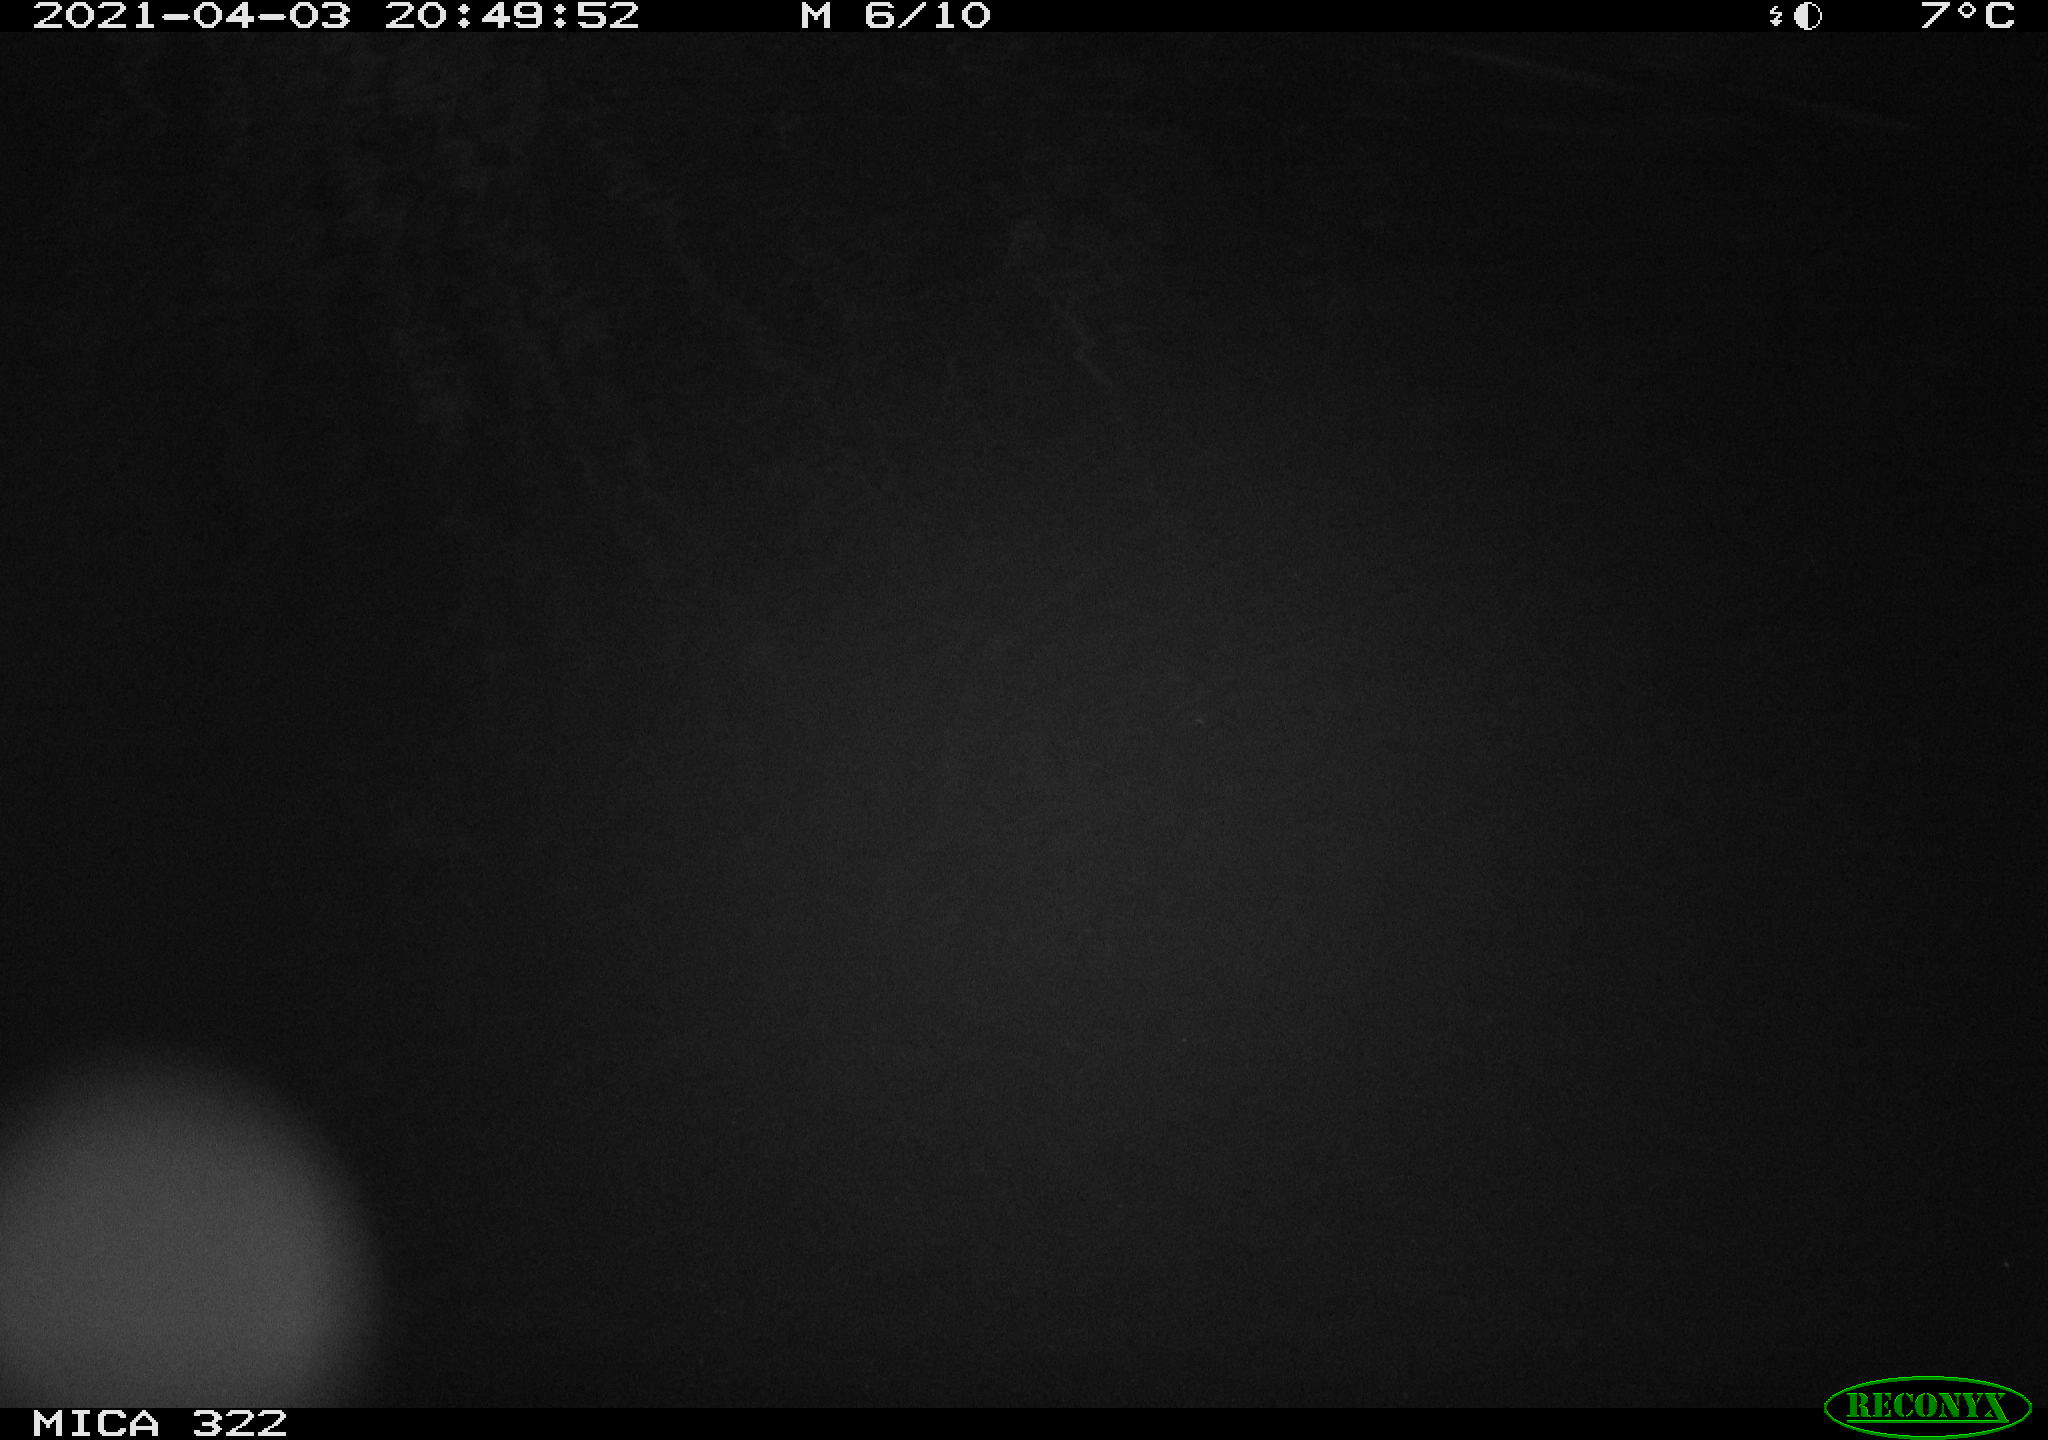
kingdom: Animalia
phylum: Chordata
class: Aves
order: Anseriformes
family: Anatidae
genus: Anas
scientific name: Anas platyrhynchos
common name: Mallard
